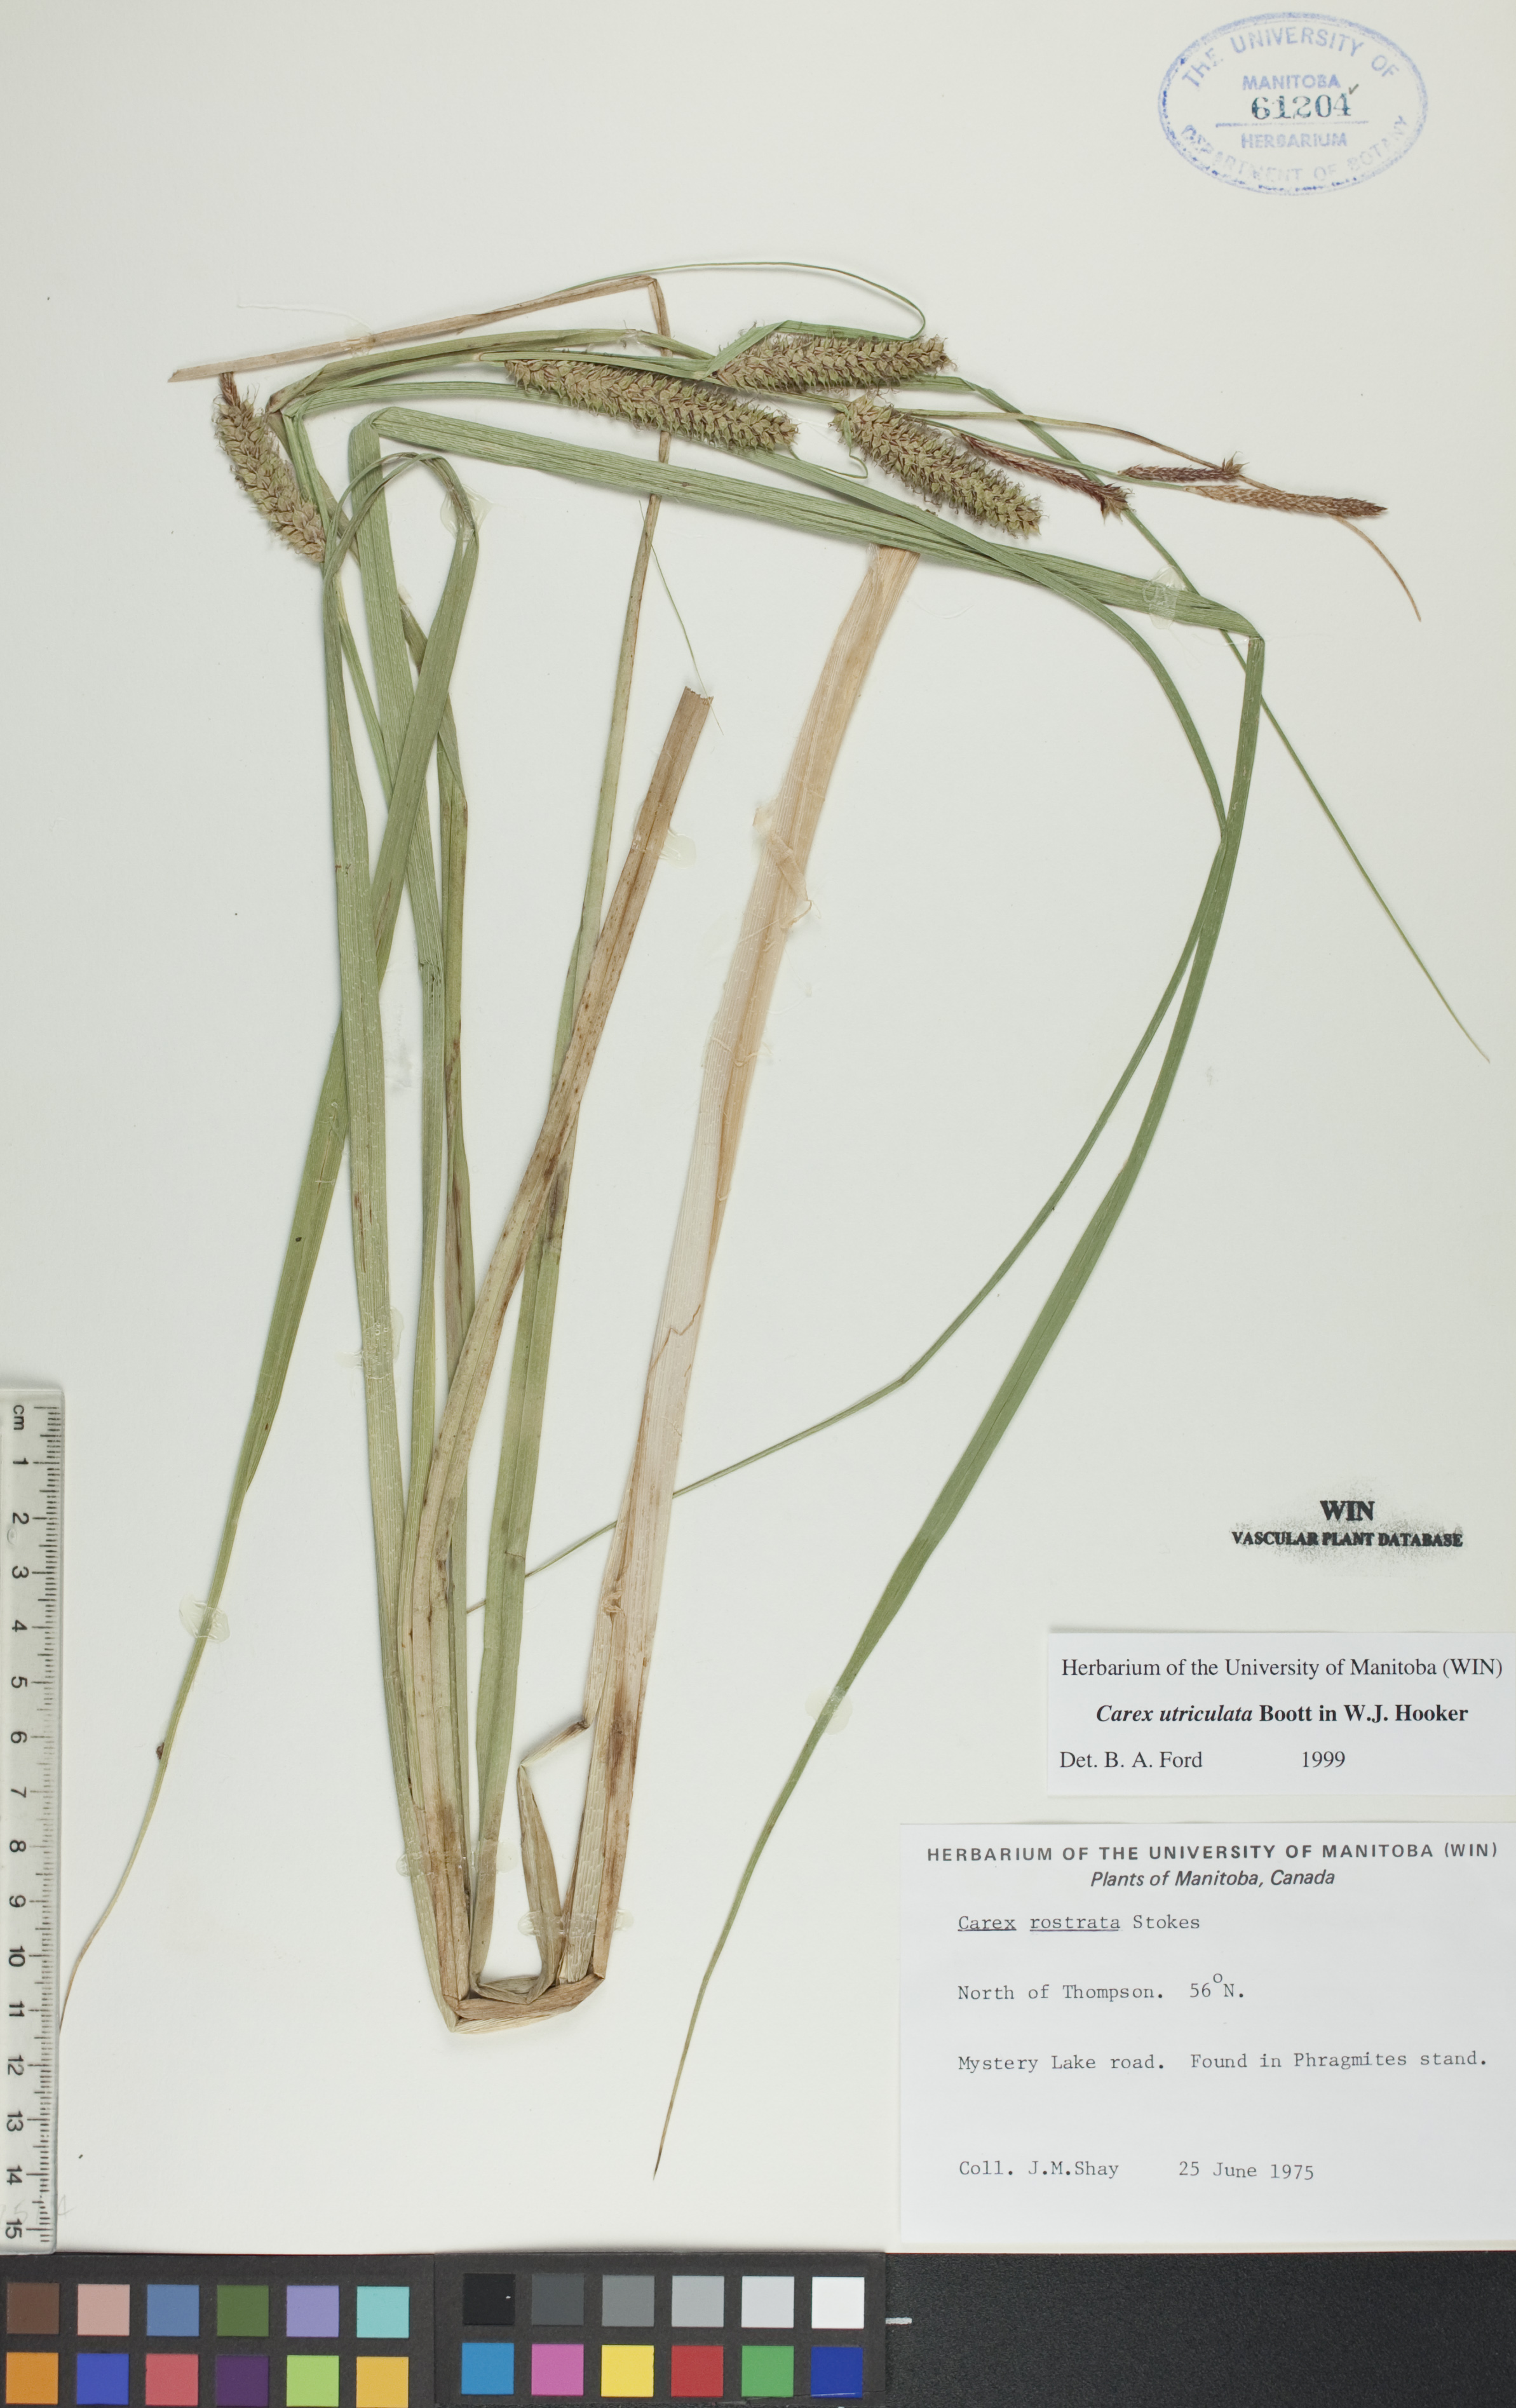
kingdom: Plantae
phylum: Tracheophyta
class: Liliopsida
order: Poales
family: Cyperaceae
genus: Carex
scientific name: Carex utriculata
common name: Beaked sedge
